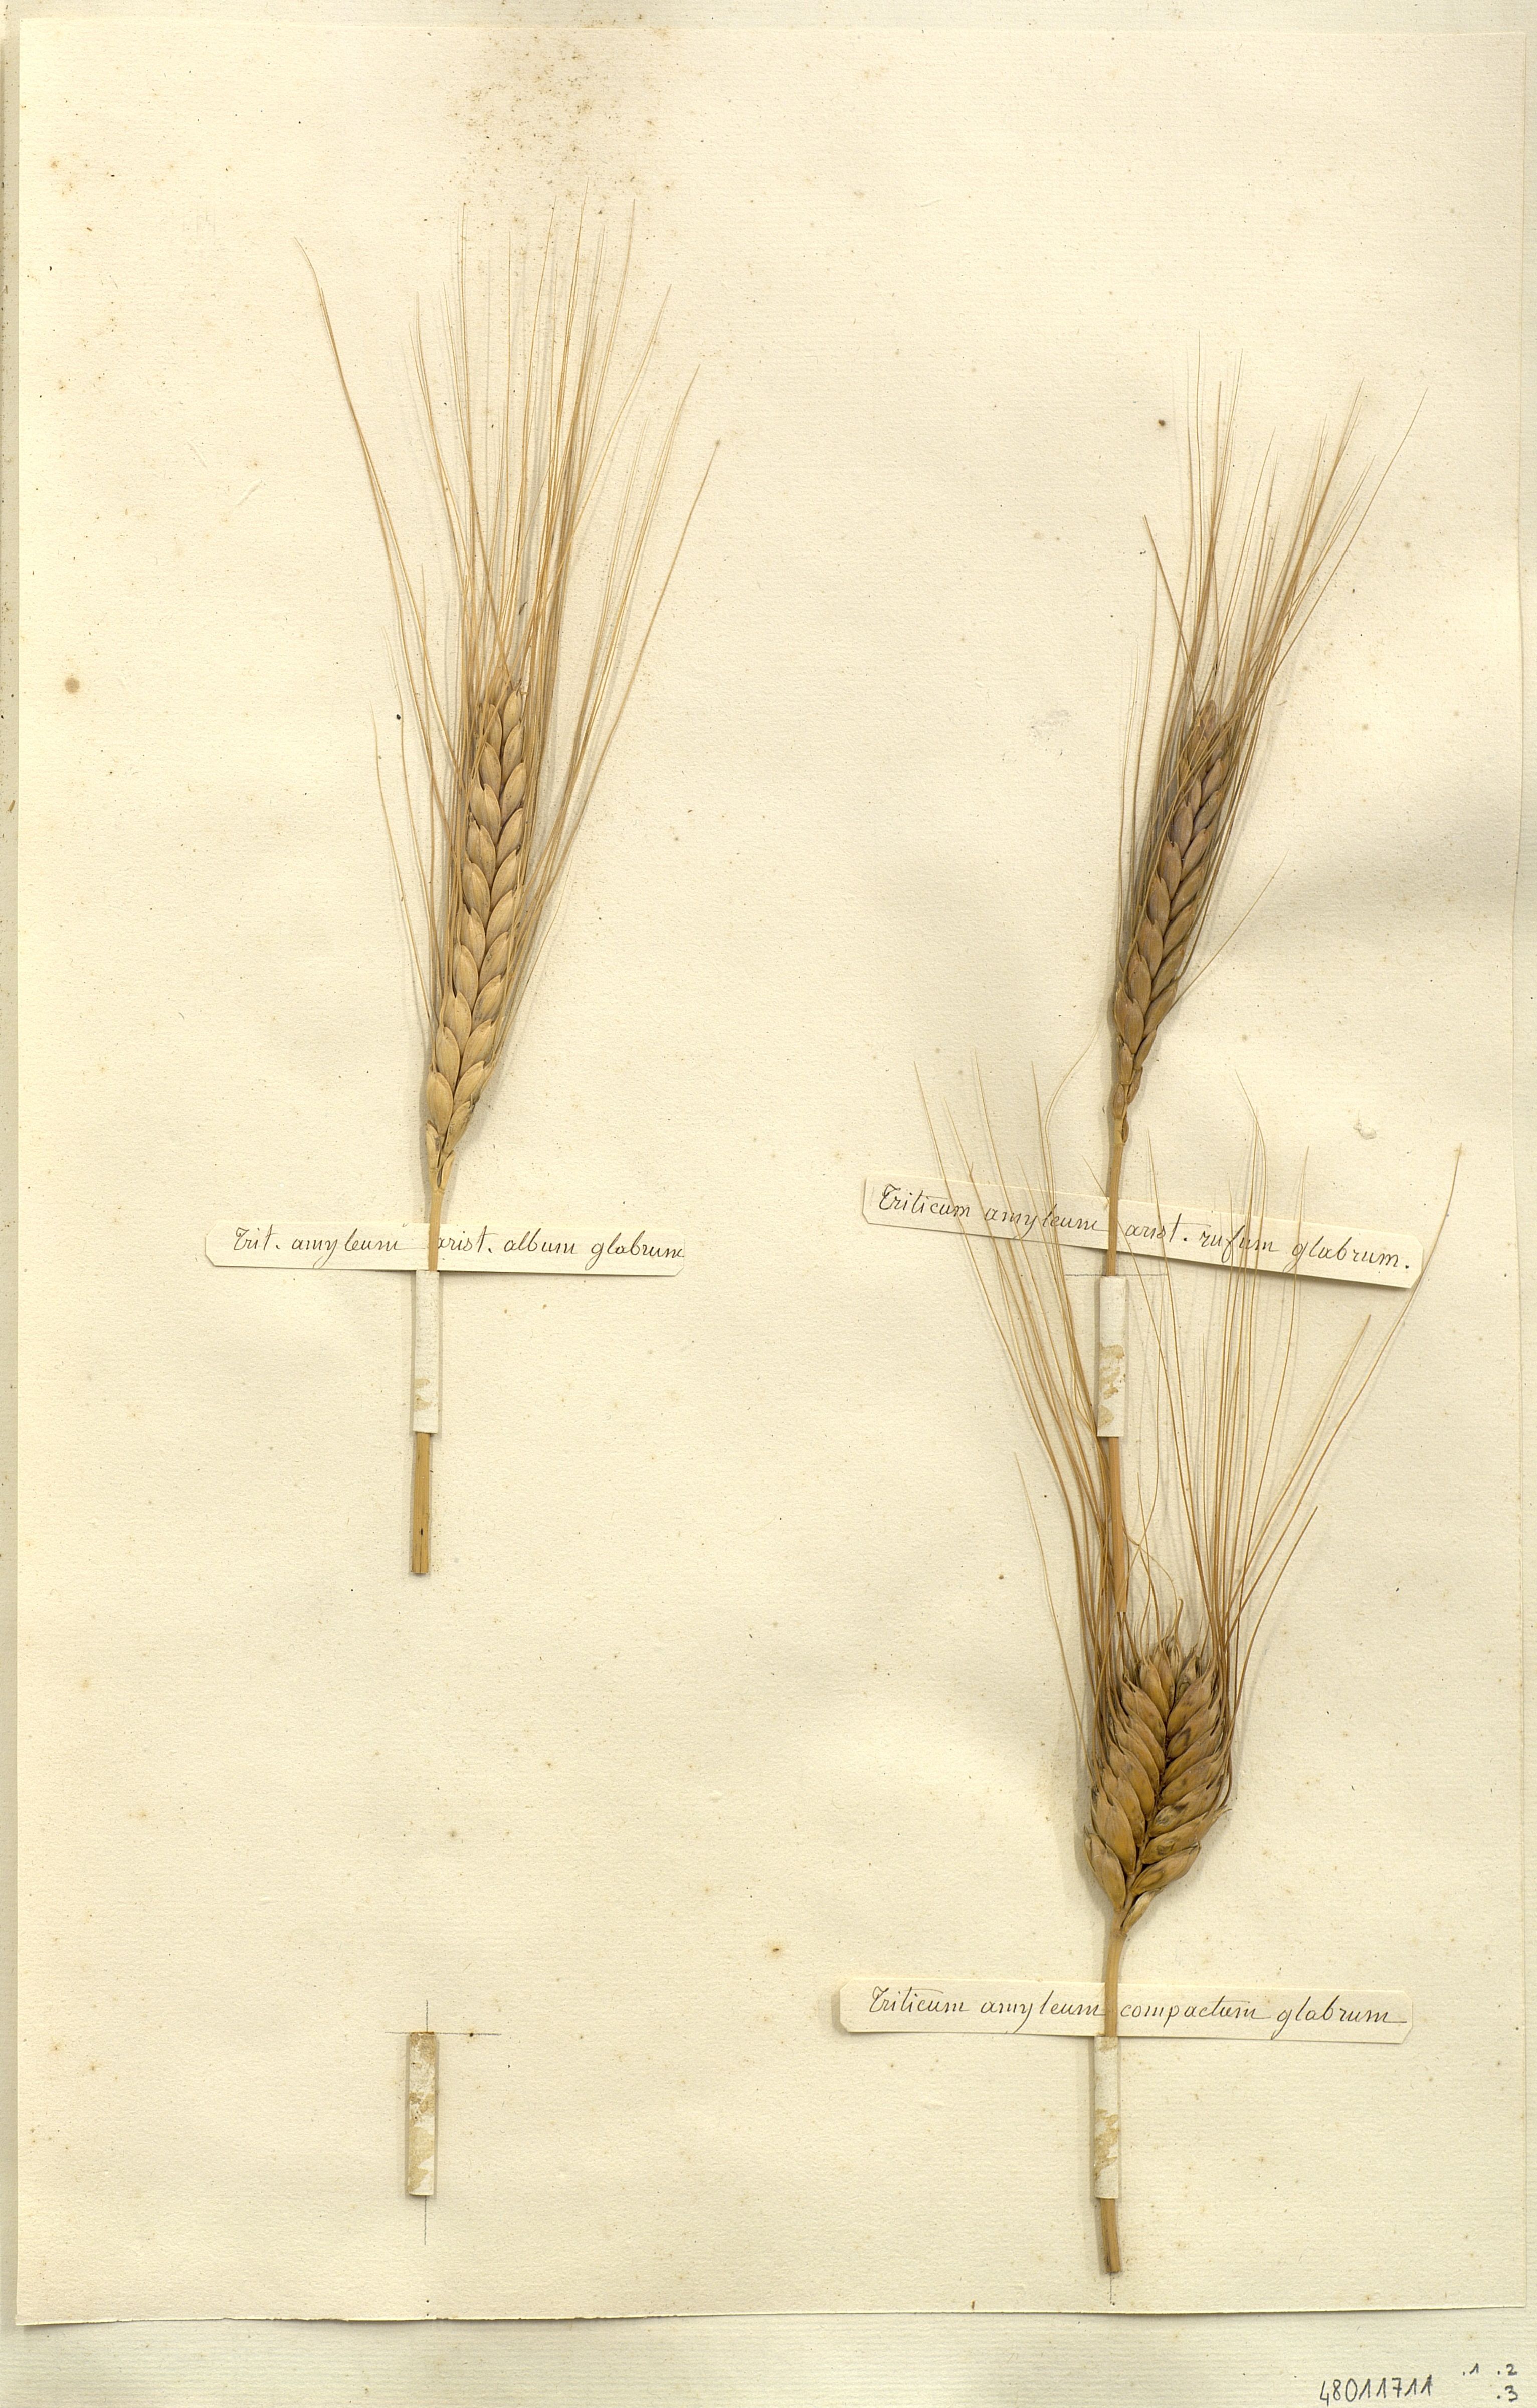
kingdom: Plantae
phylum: Tracheophyta
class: Liliopsida
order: Poales
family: Poaceae
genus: Triticum
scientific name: Triticum turgidum
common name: Rivet wheat
